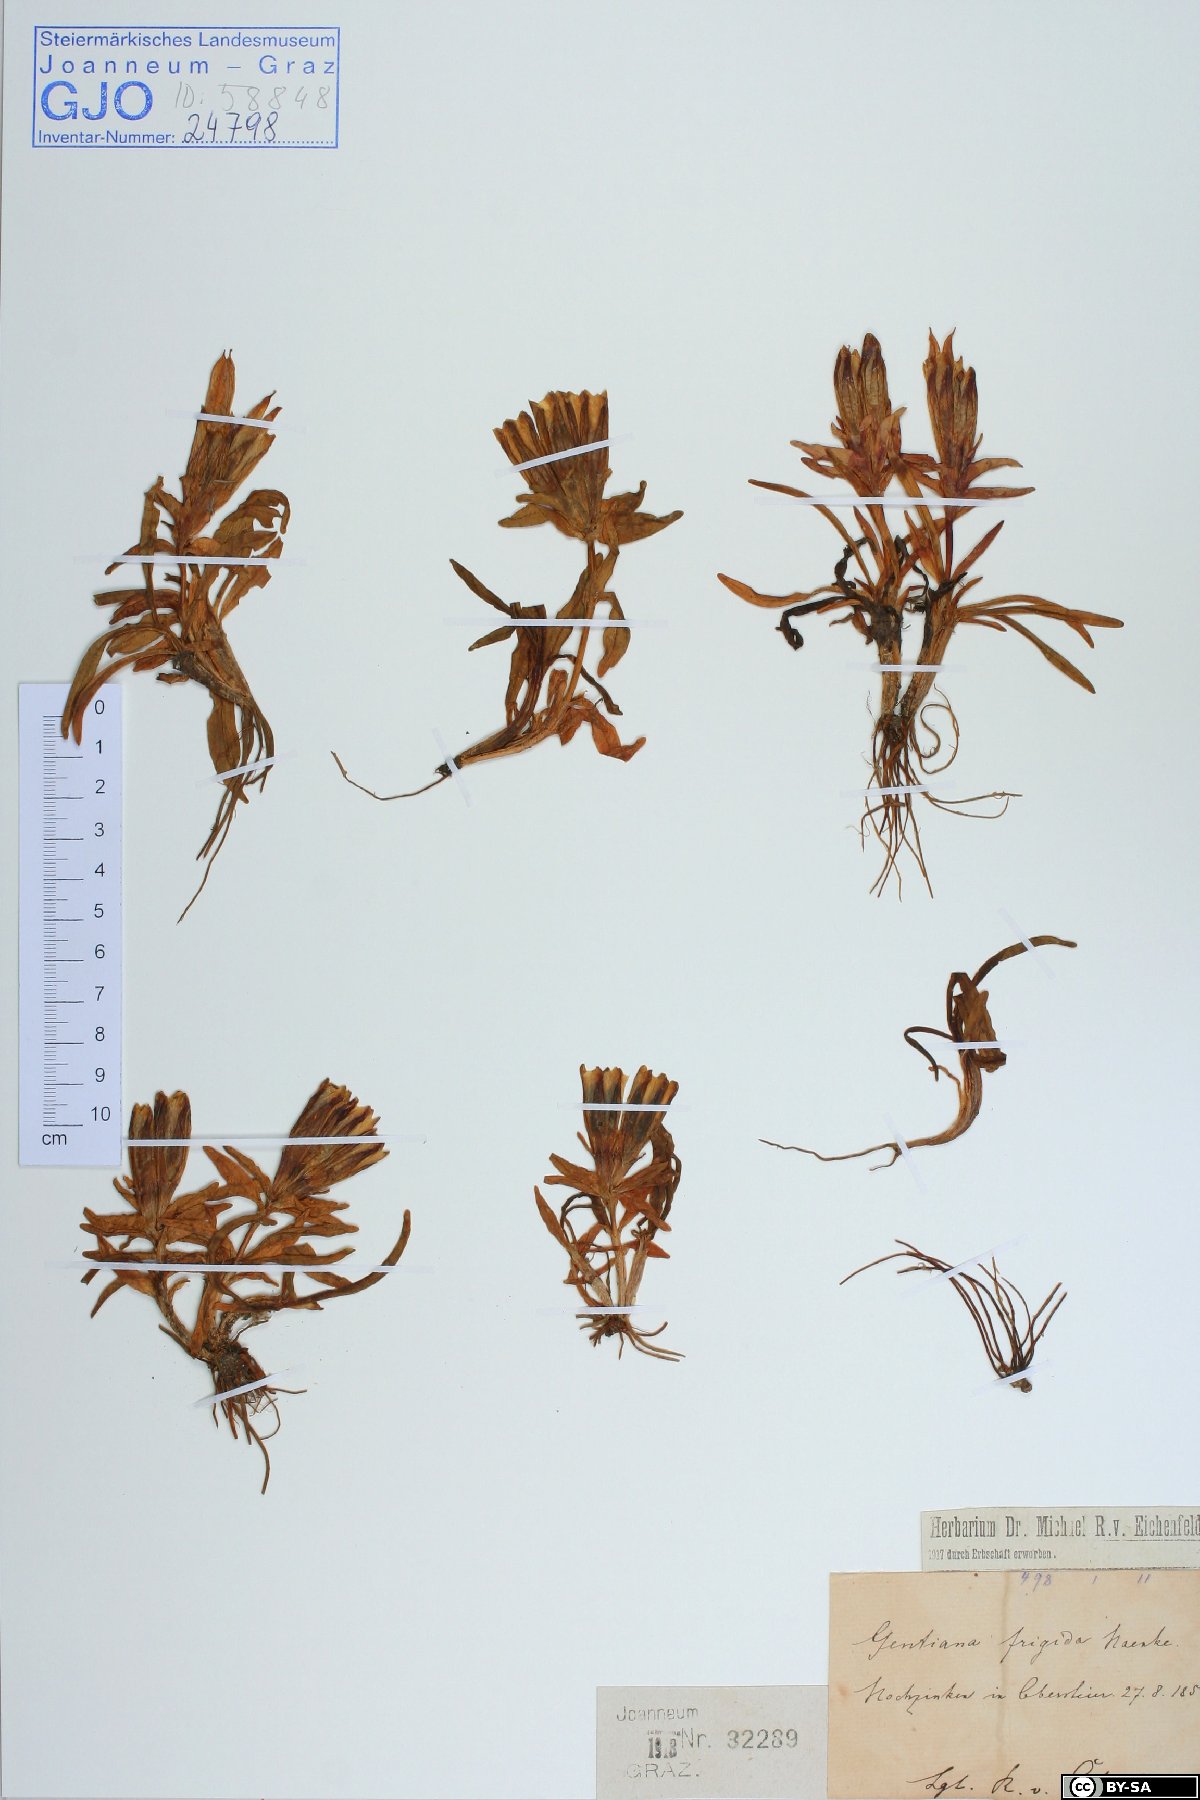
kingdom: Plantae
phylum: Tracheophyta
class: Magnoliopsida
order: Gentianales
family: Gentianaceae
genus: Gentiana
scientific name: Gentiana frigida
